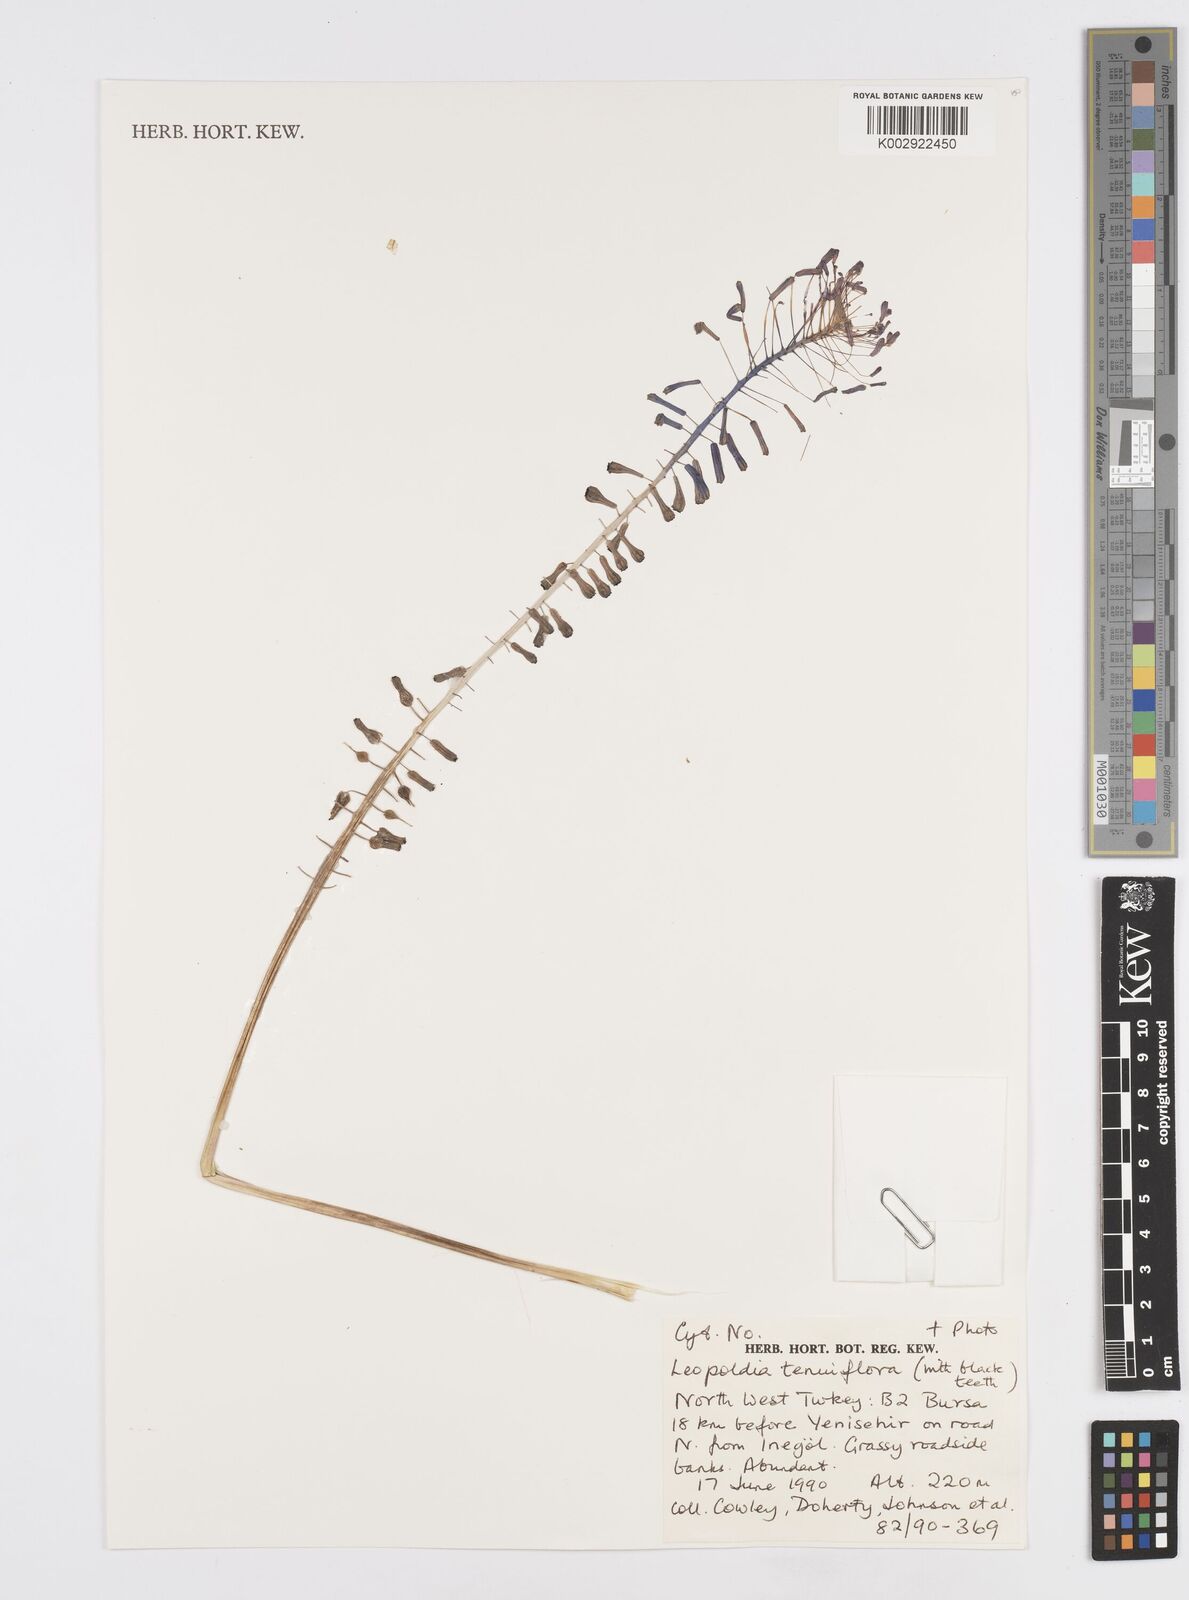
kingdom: Plantae
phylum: Tracheophyta
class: Liliopsida
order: Asparagales
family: Asparagaceae
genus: Muscari
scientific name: Muscari tenuiflorum
